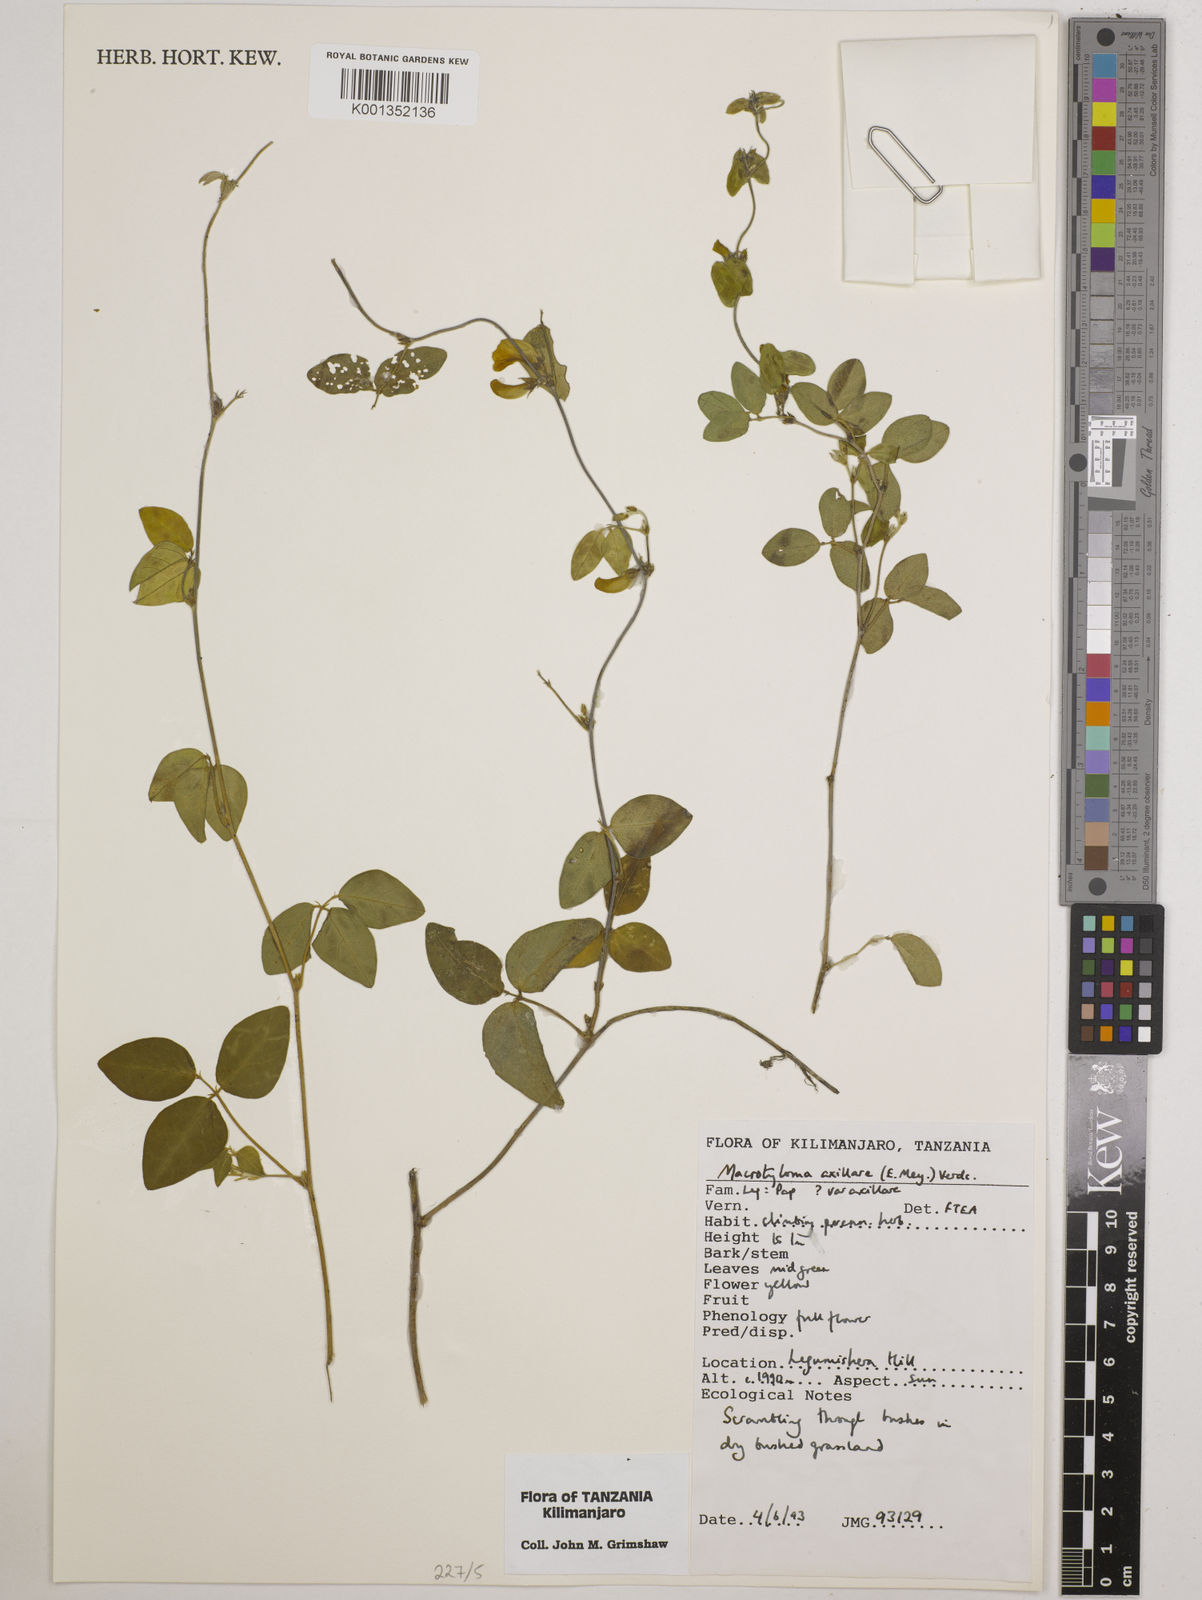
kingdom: Plantae
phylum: Tracheophyta
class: Magnoliopsida
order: Fabales
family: Fabaceae
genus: Macrotyloma
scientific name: Macrotyloma axillare
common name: Perennial horsegram
